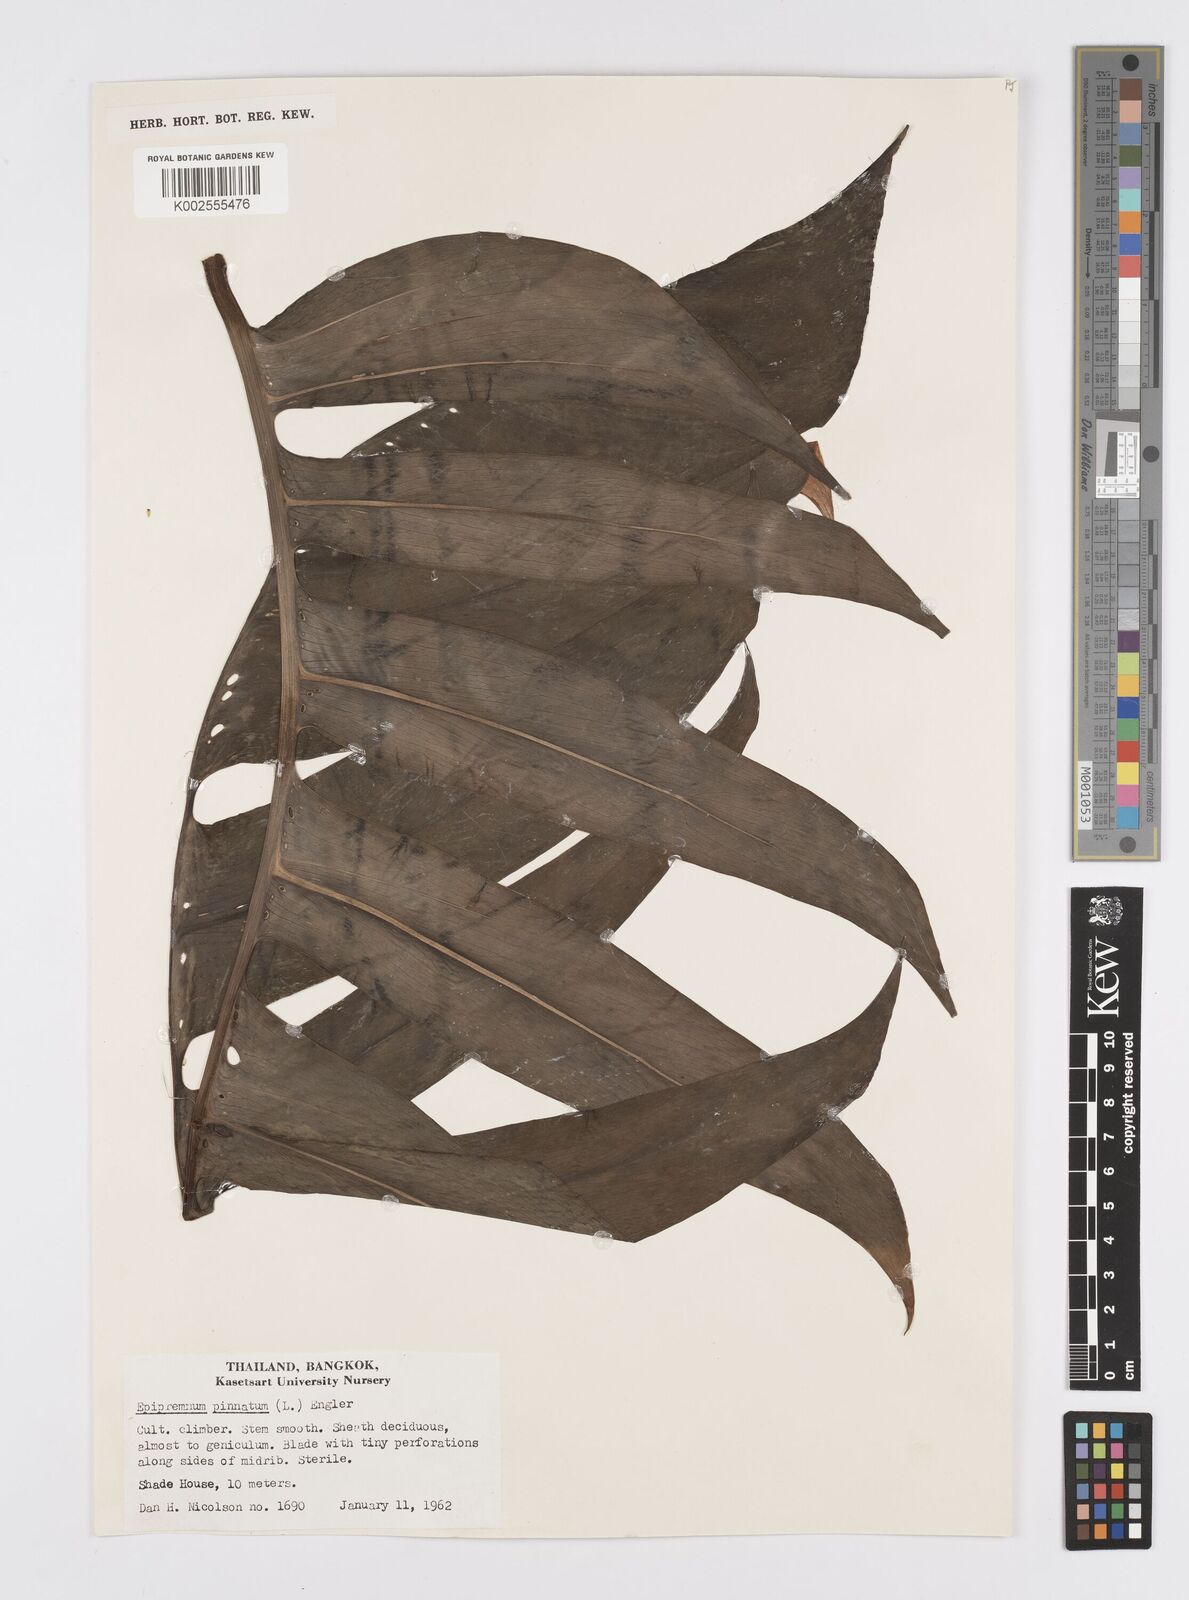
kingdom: Plantae
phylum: Tracheophyta
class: Liliopsida
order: Alismatales
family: Araceae
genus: Epipremnum
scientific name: Epipremnum pinnatum
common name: Centipede tongavine
